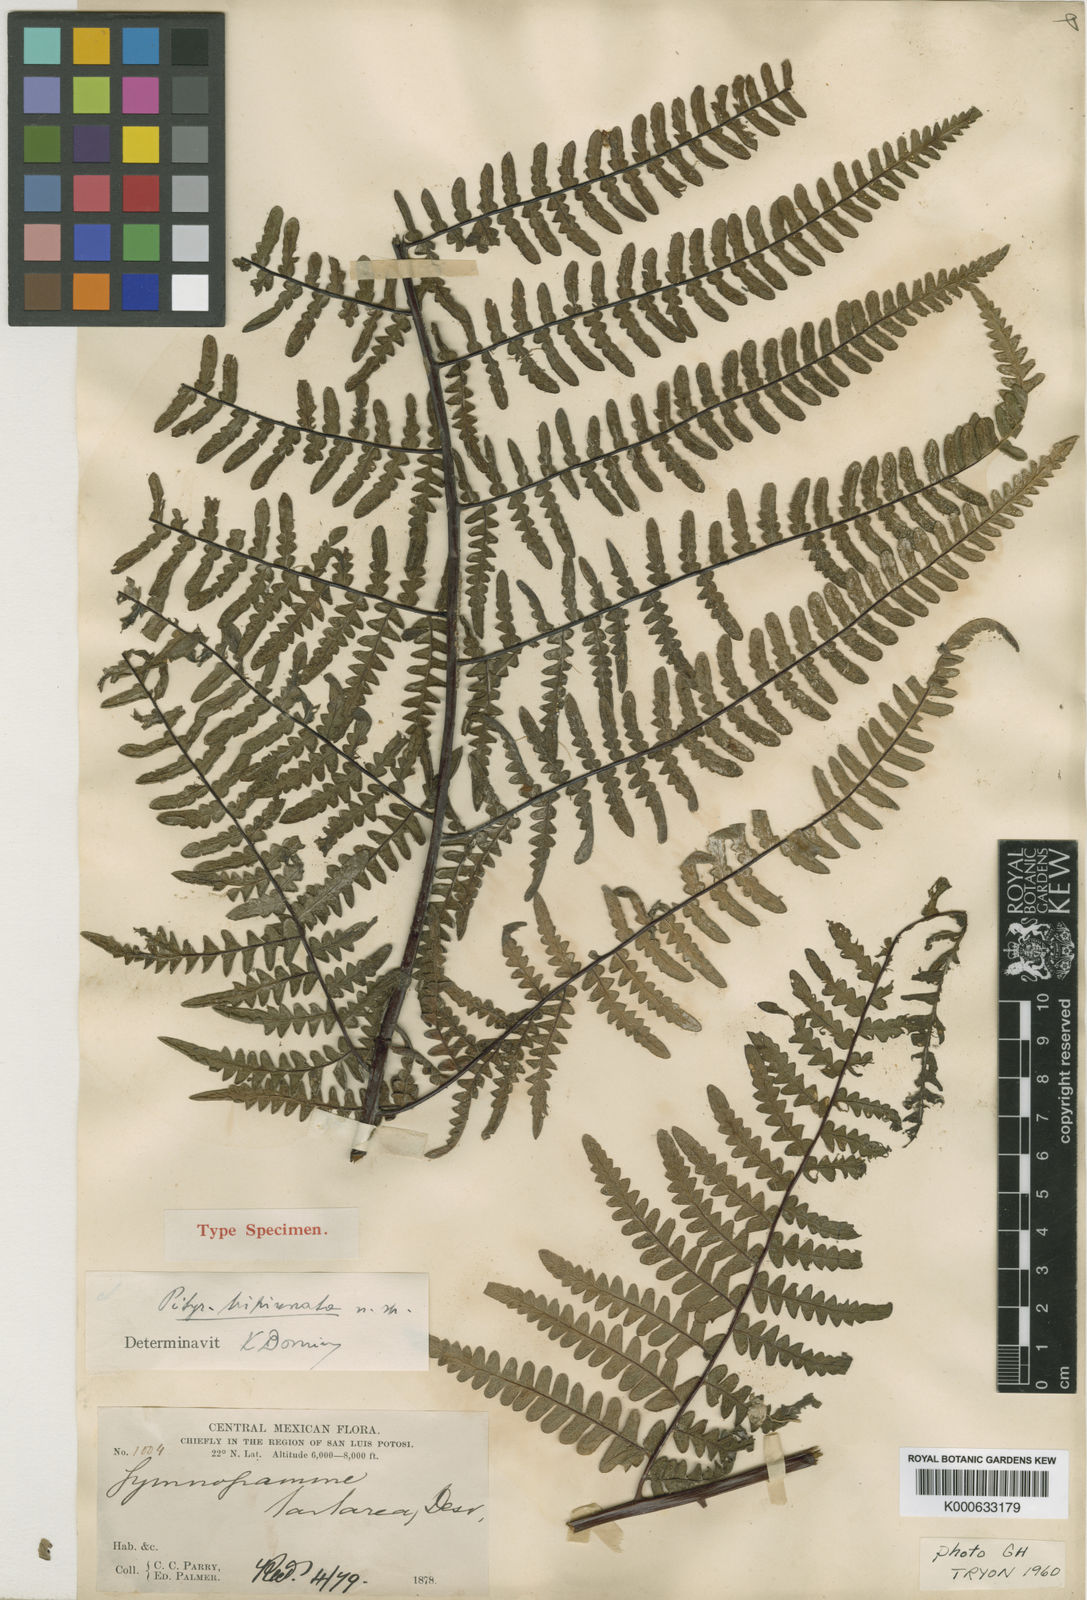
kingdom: Plantae
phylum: Tracheophyta
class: Polypodiopsida
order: Polypodiales
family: Pteridaceae
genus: Pityrogramma
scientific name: Pityrogramma ebenea
